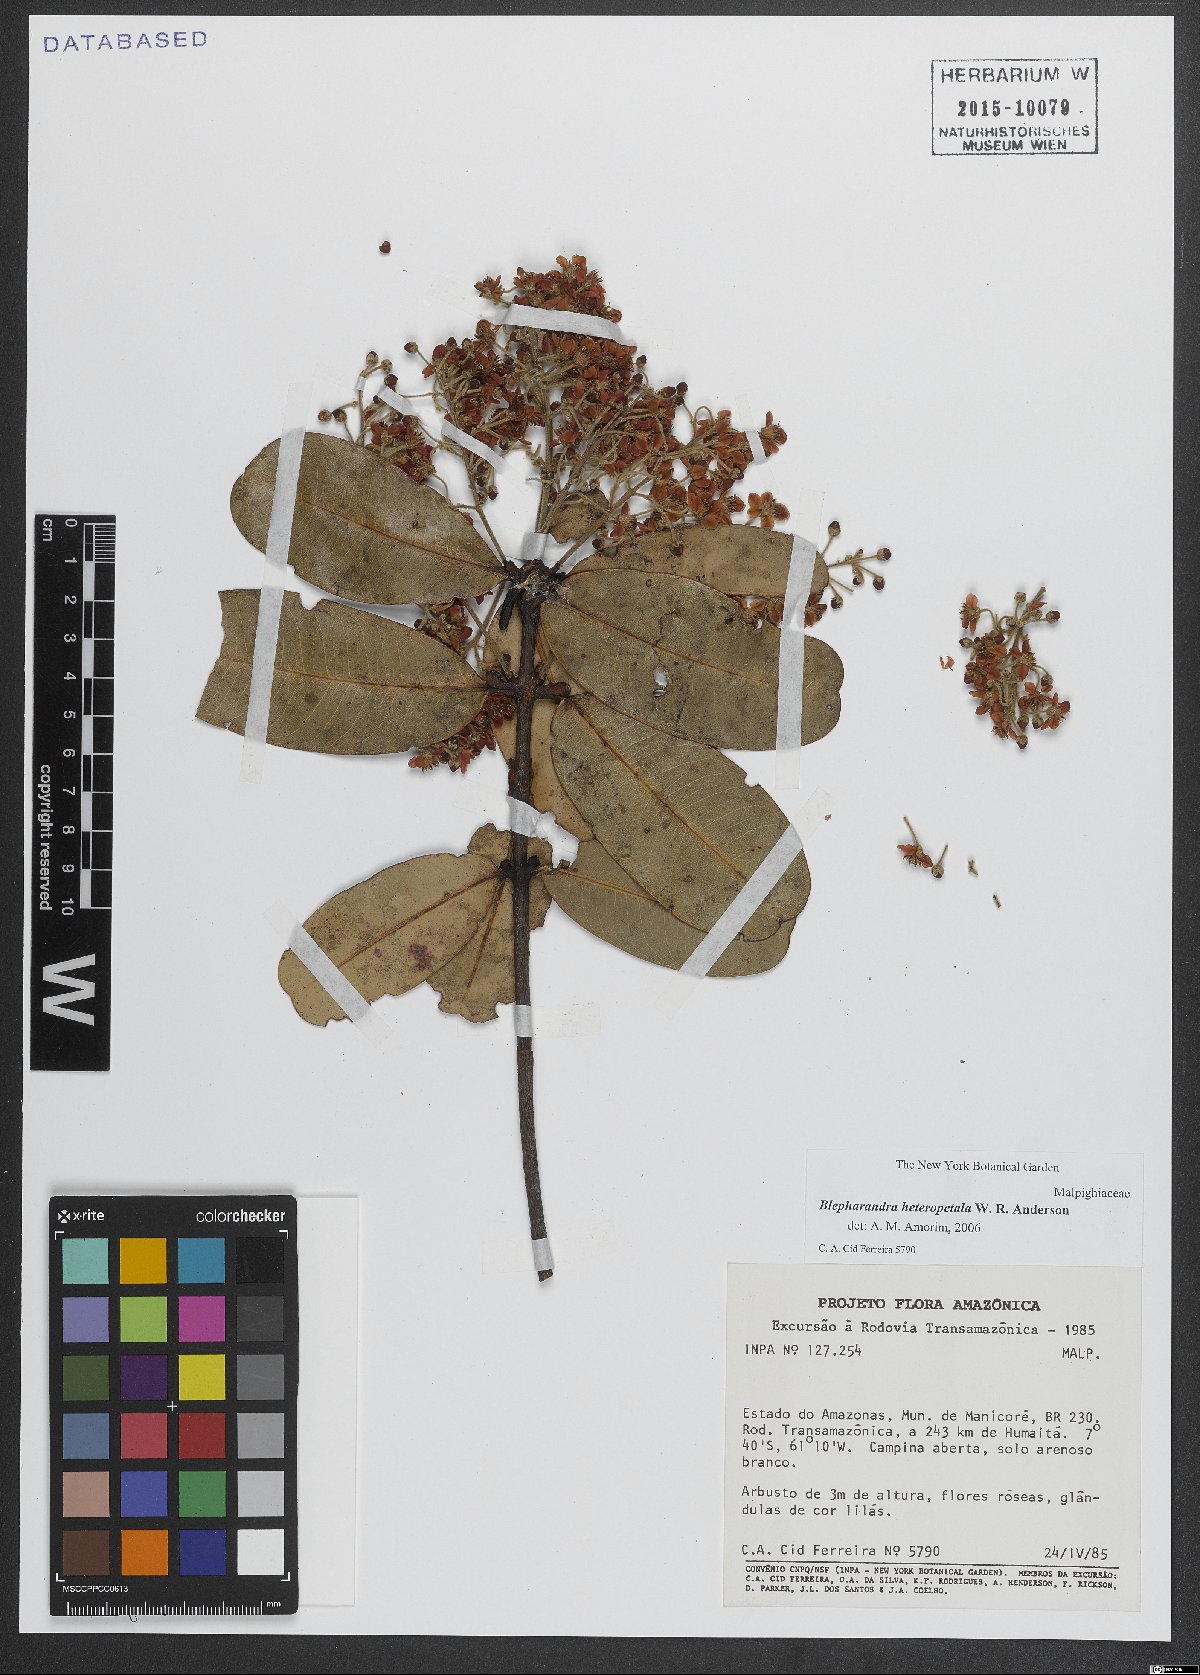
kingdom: Plantae
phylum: Tracheophyta
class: Magnoliopsida
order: Malpighiales
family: Malpighiaceae
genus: Blepharandra
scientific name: Blepharandra heteropetala
